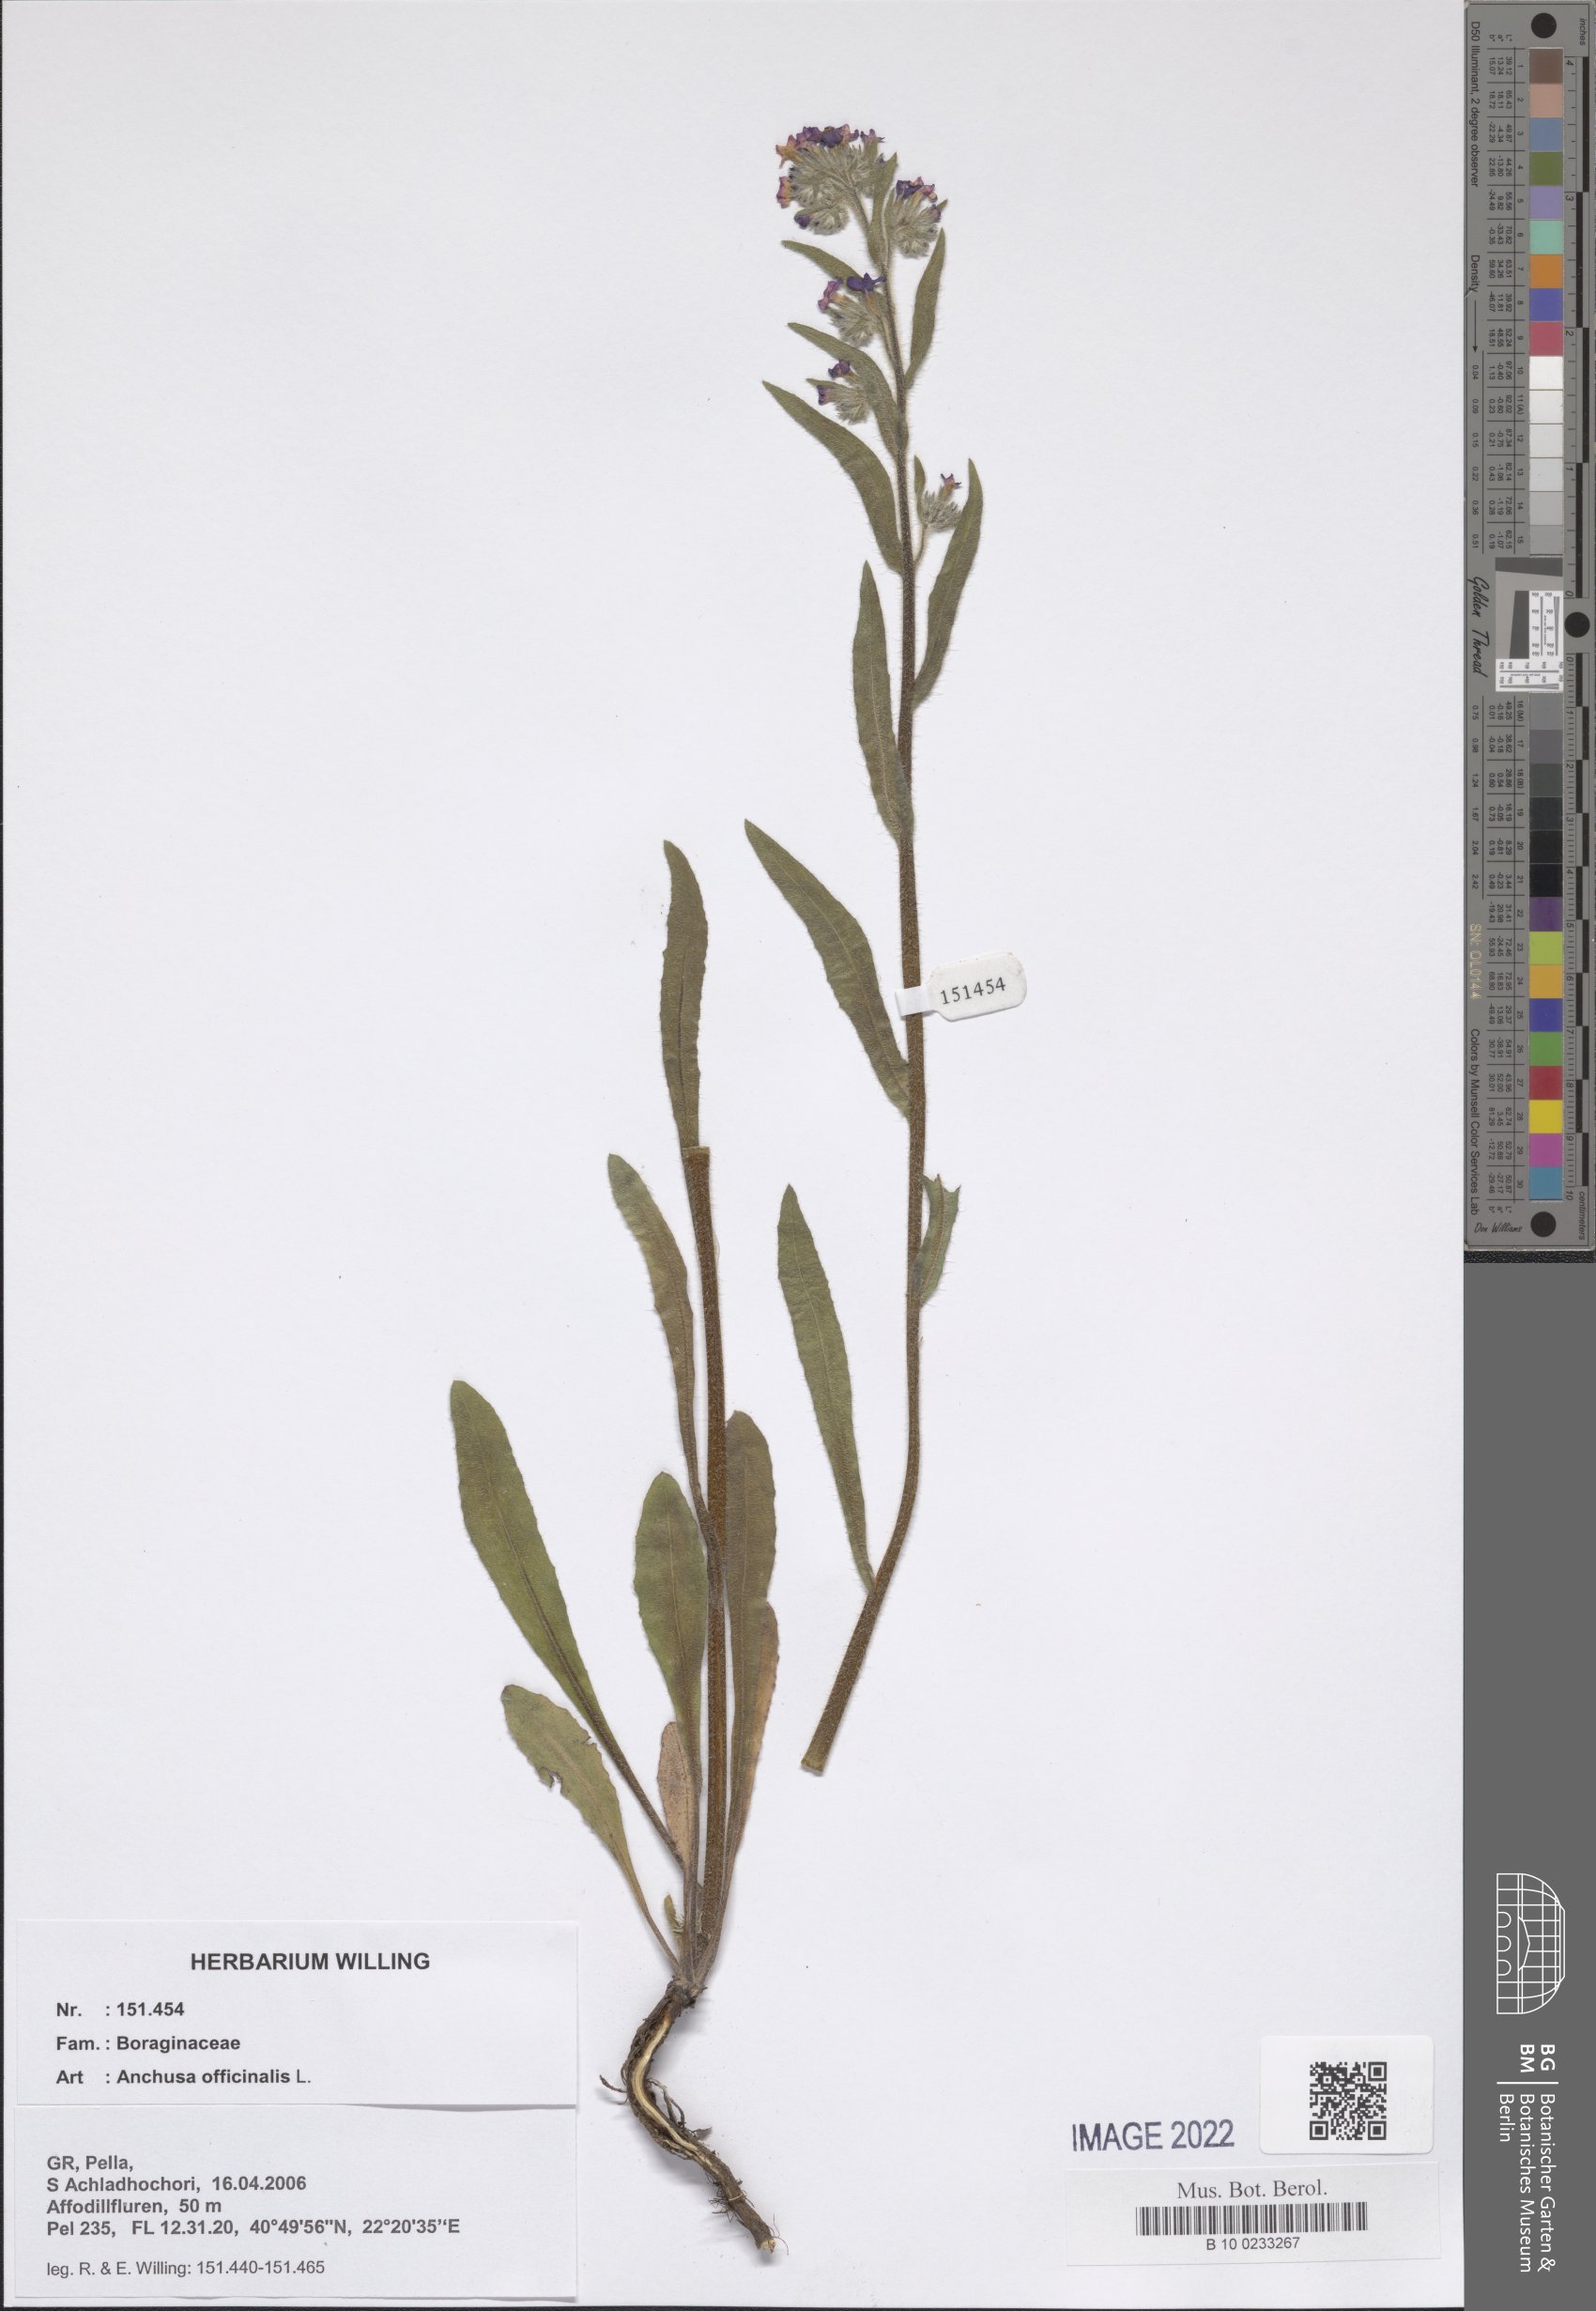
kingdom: Plantae
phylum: Tracheophyta
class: Magnoliopsida
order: Boraginales
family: Boraginaceae
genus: Anchusa
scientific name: Anchusa officinalis
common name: Alkanet
